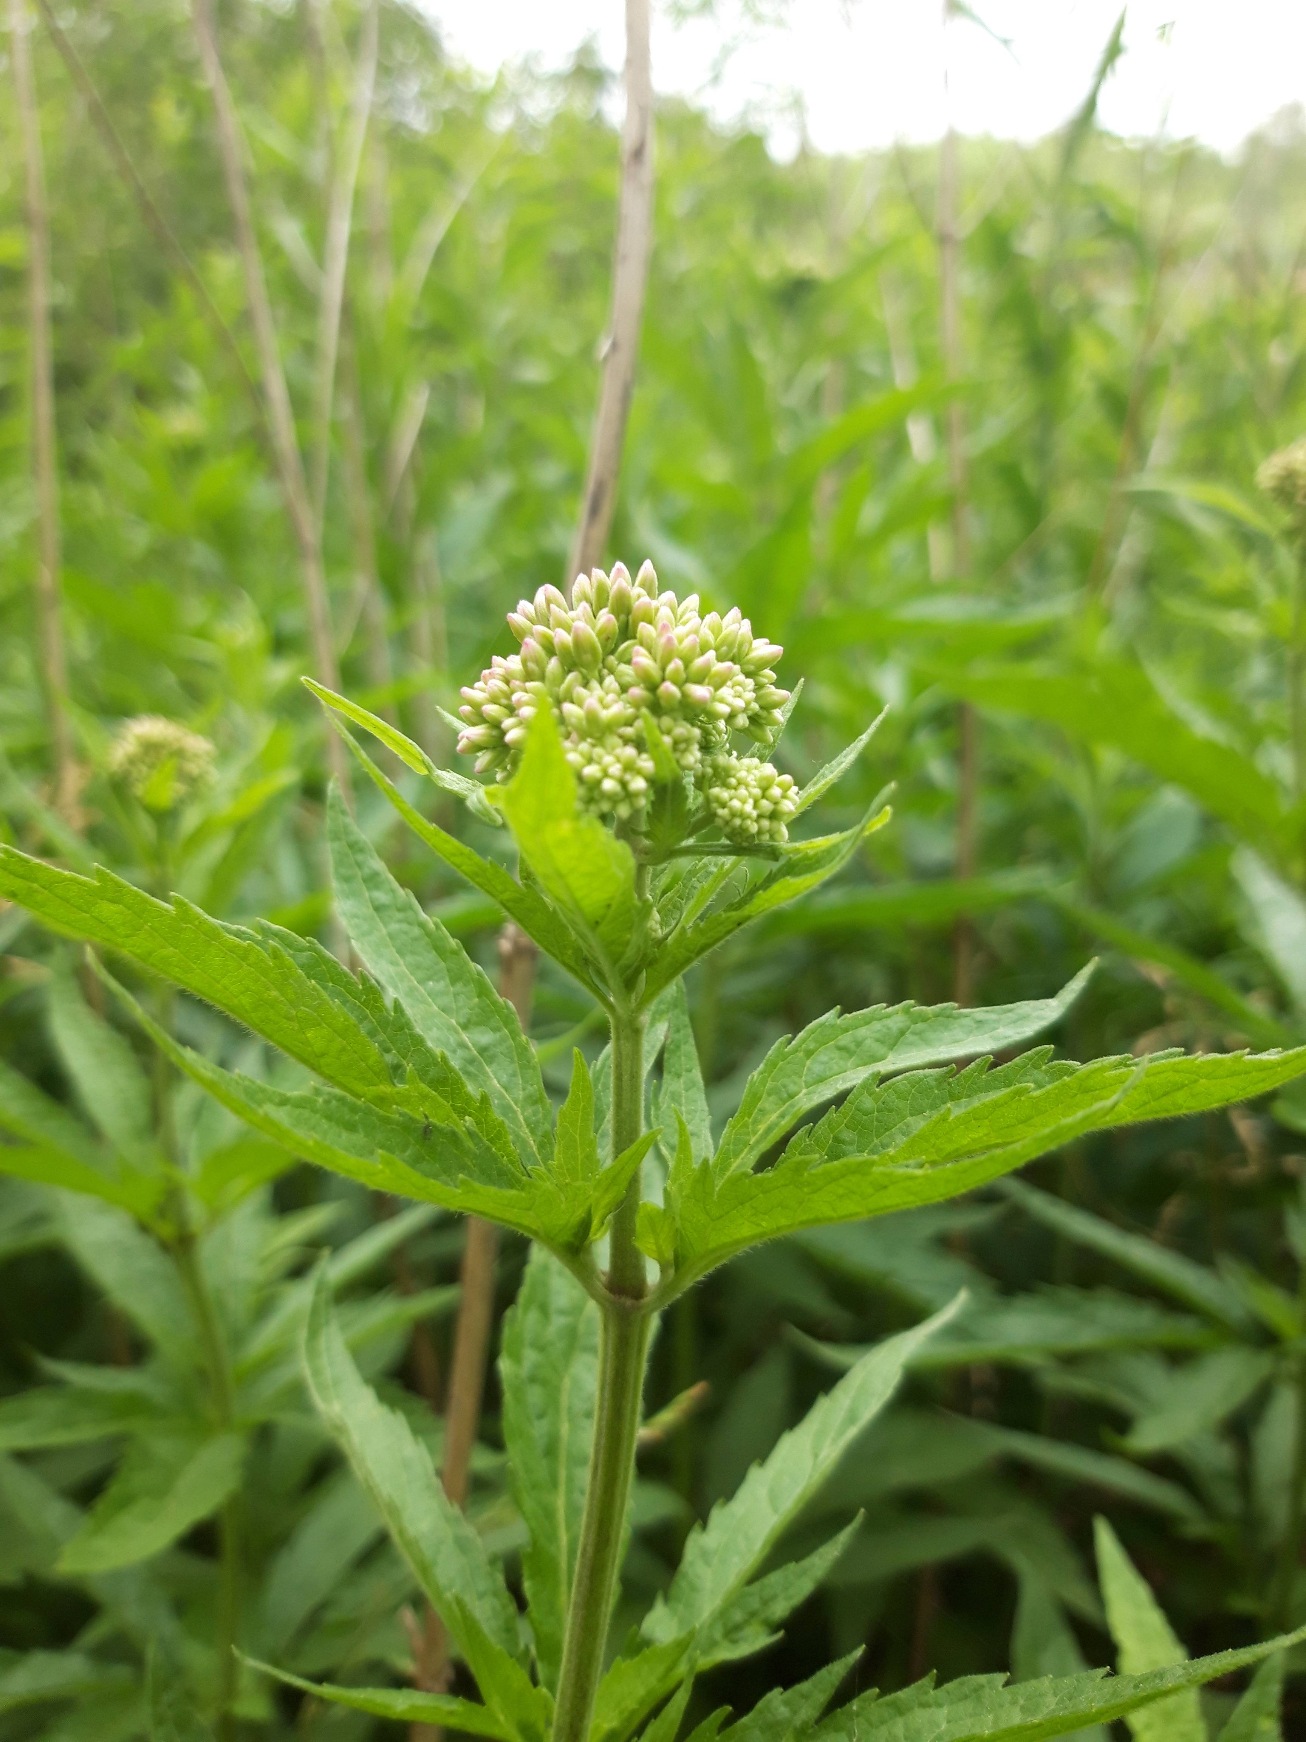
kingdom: Plantae
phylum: Tracheophyta
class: Magnoliopsida
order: Asterales
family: Asteraceae
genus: Eupatorium
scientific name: Eupatorium cannabinum
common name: Hjortetrøst
